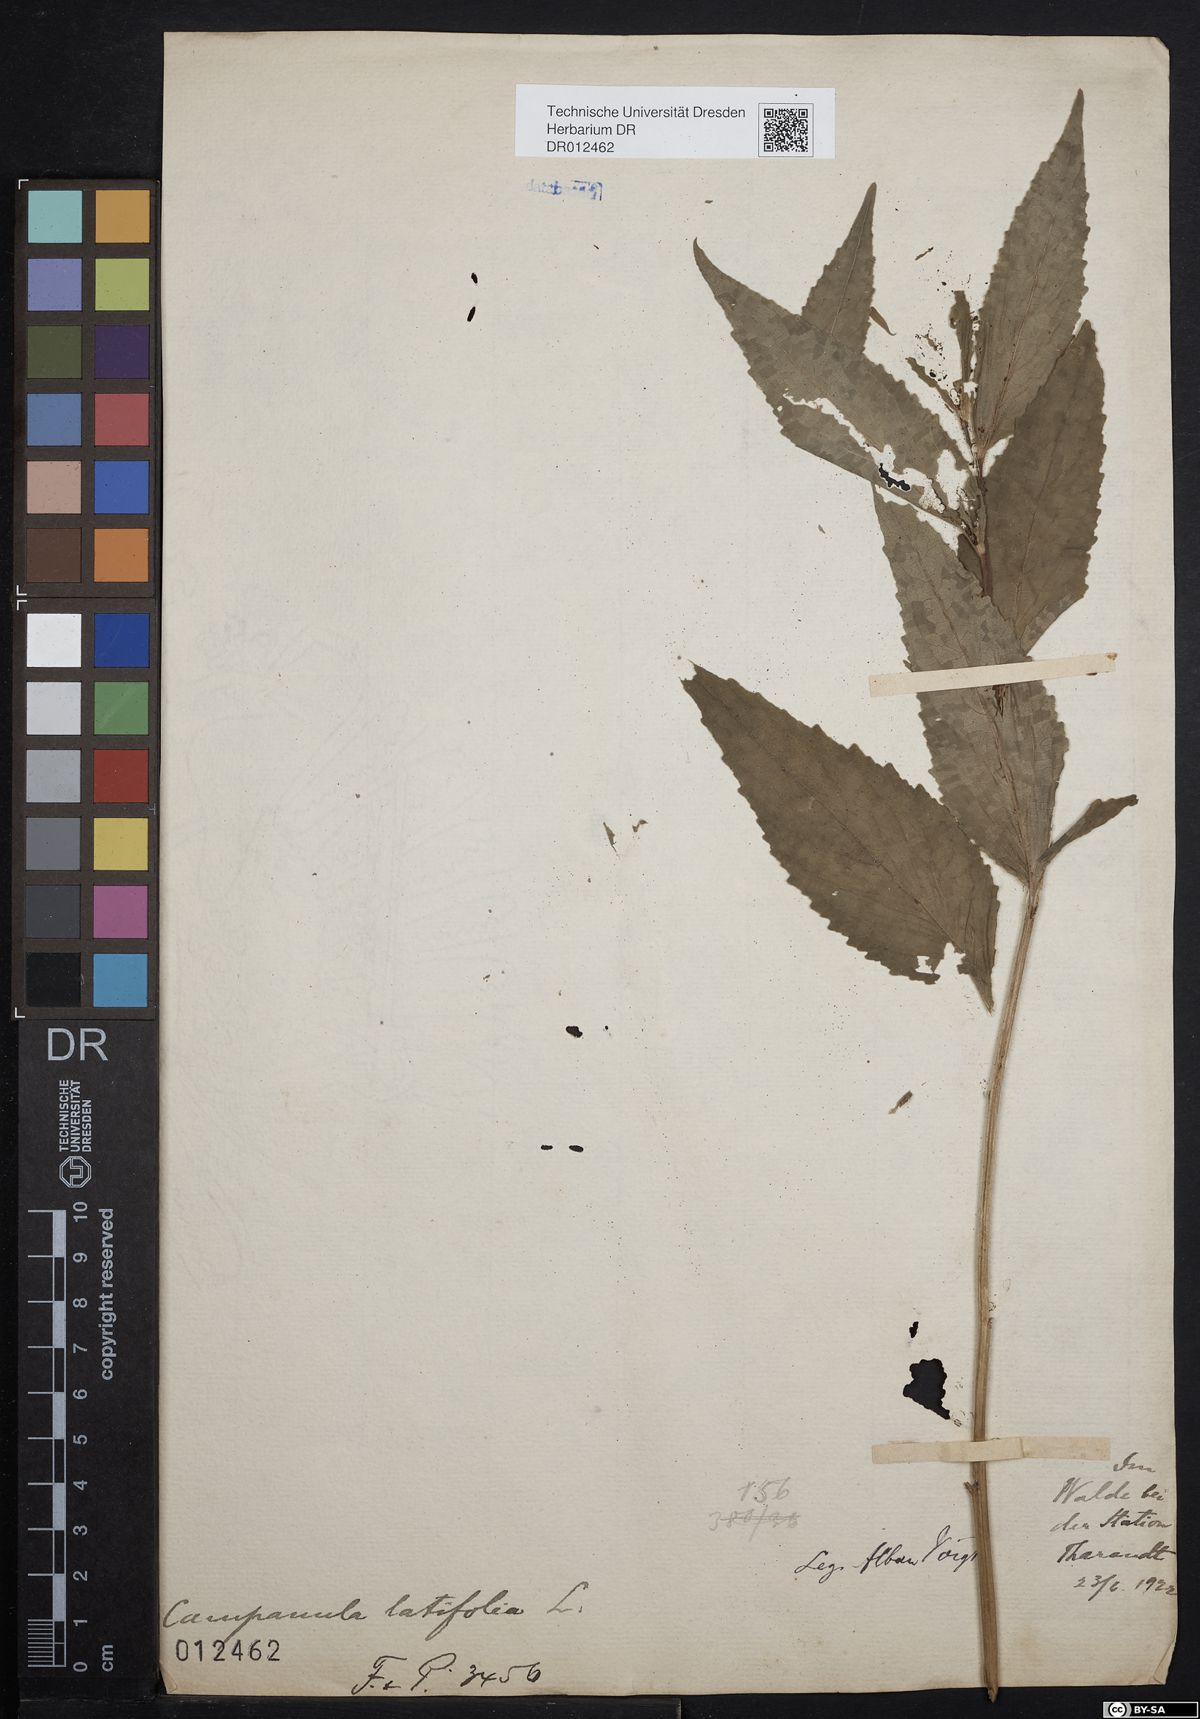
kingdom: Plantae
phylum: Tracheophyta
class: Magnoliopsida
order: Asterales
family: Campanulaceae
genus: Campanula
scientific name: Campanula latifolia
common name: Giant bellflower
